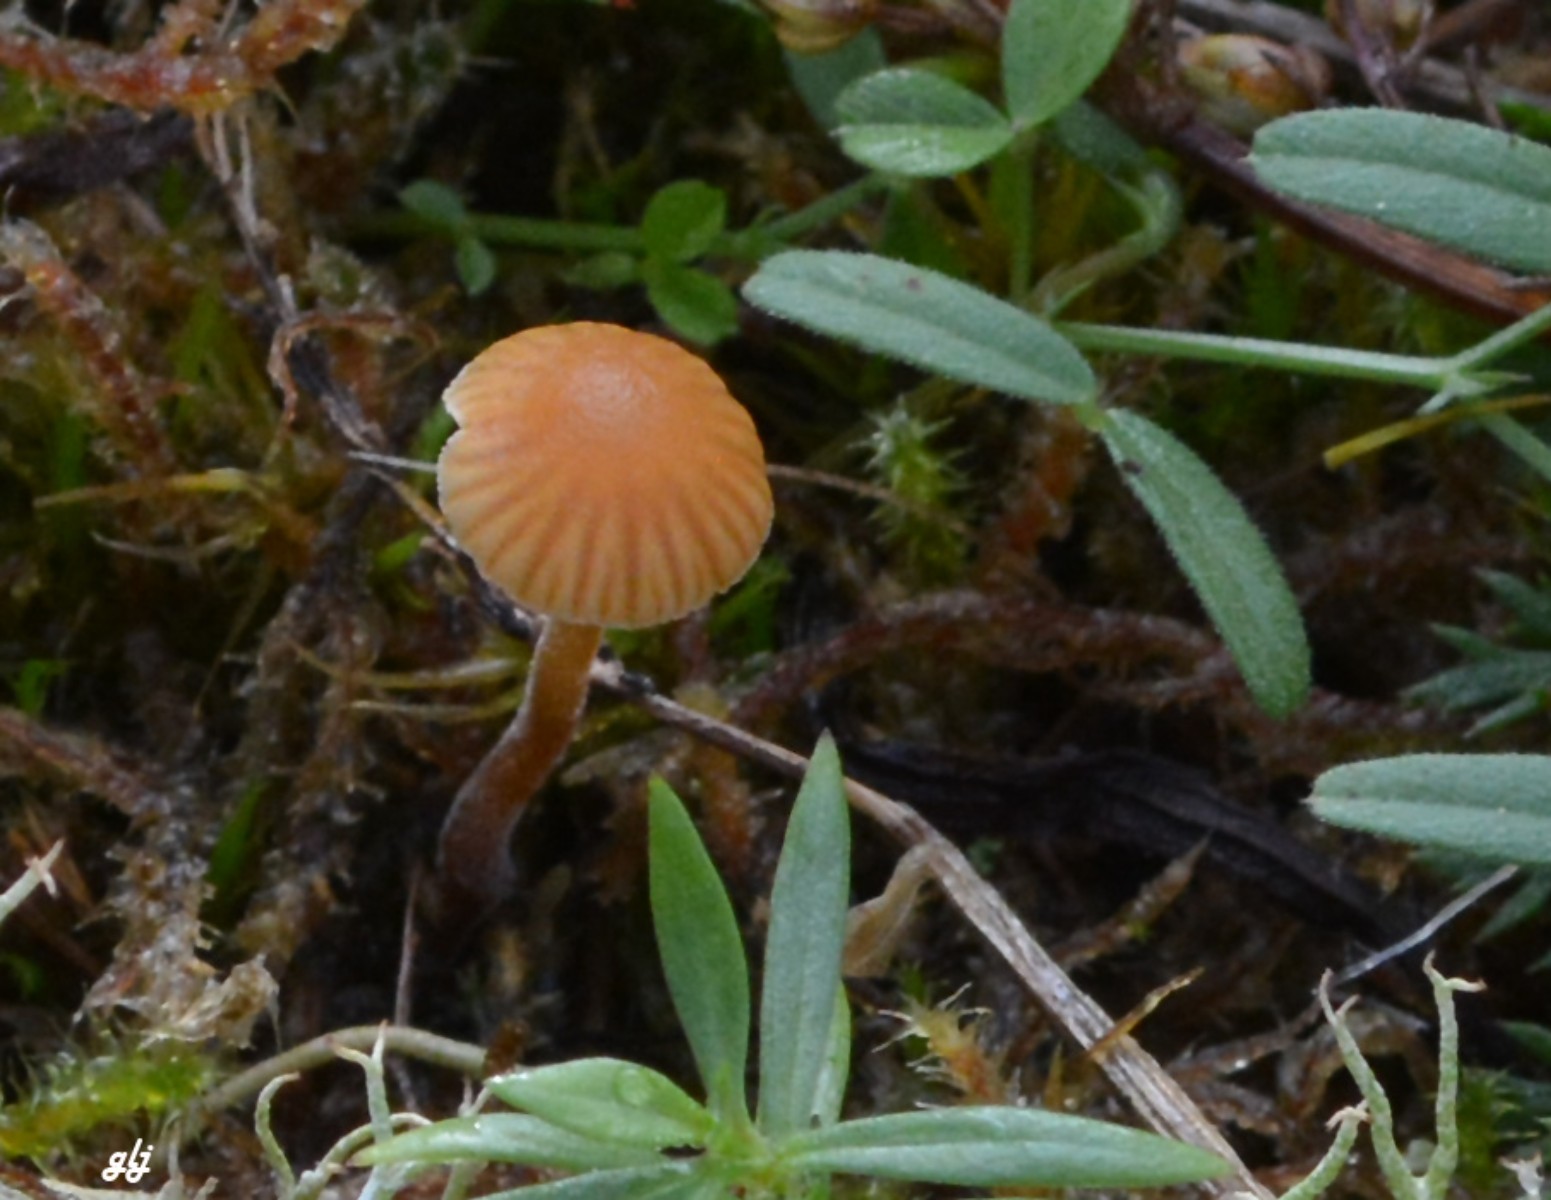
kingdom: Fungi
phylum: Basidiomycota
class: Agaricomycetes
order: Agaricales
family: Hymenogastraceae
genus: Galerina
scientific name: Galerina
